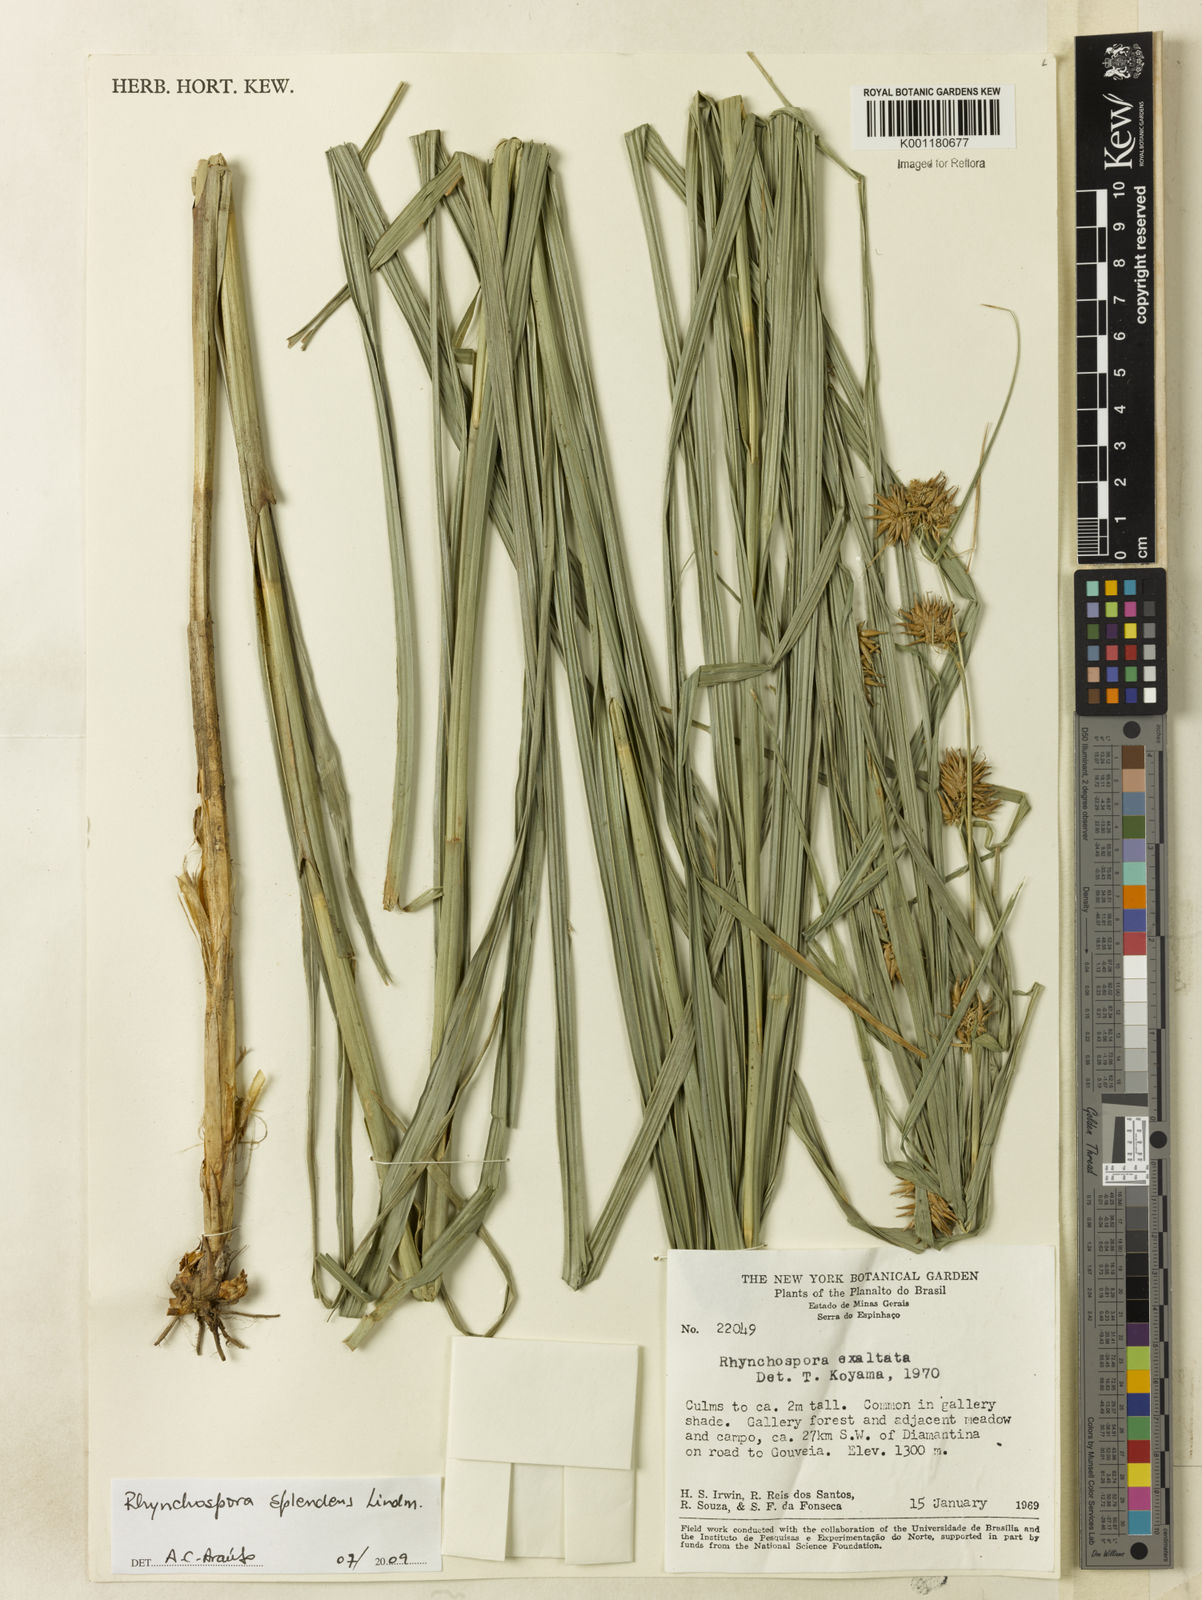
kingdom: Plantae
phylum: Tracheophyta
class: Liliopsida
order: Poales
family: Cyperaceae
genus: Rhynchospora
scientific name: Rhynchospora splendens
